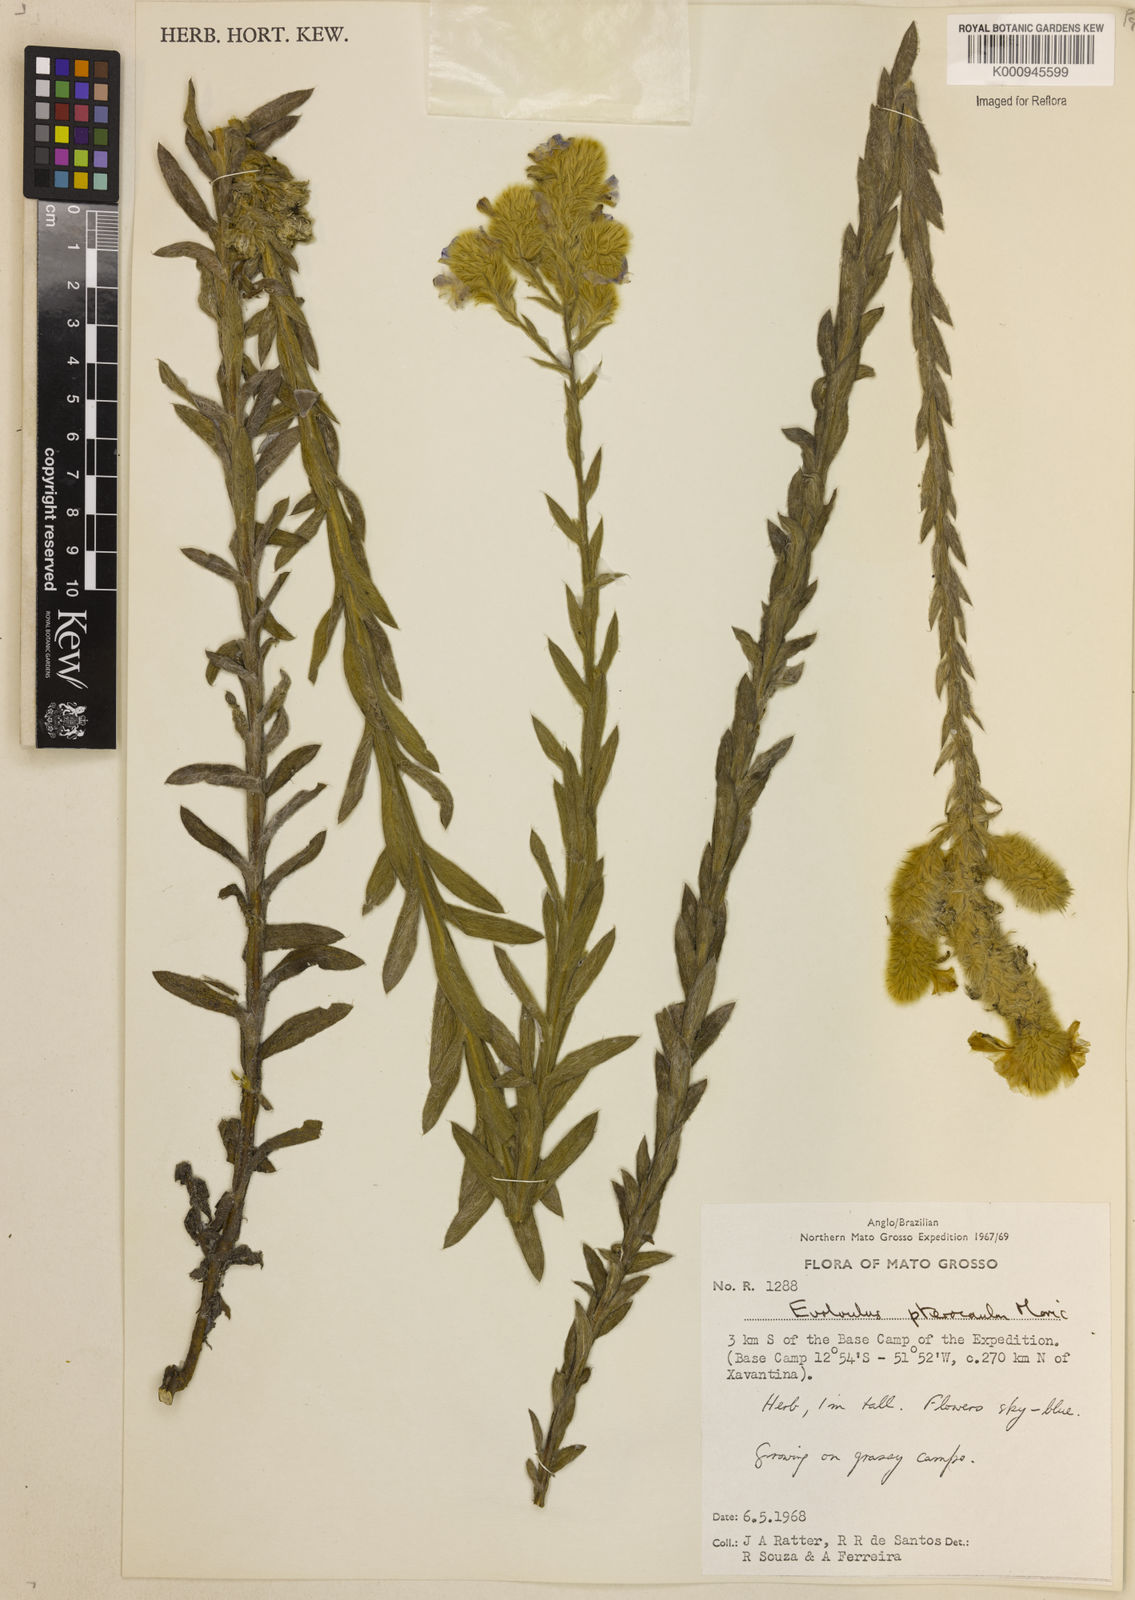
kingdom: Plantae
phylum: Tracheophyta
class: Magnoliopsida
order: Solanales
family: Convolvulaceae
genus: Evolvulus
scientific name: Evolvulus pterocaulon
